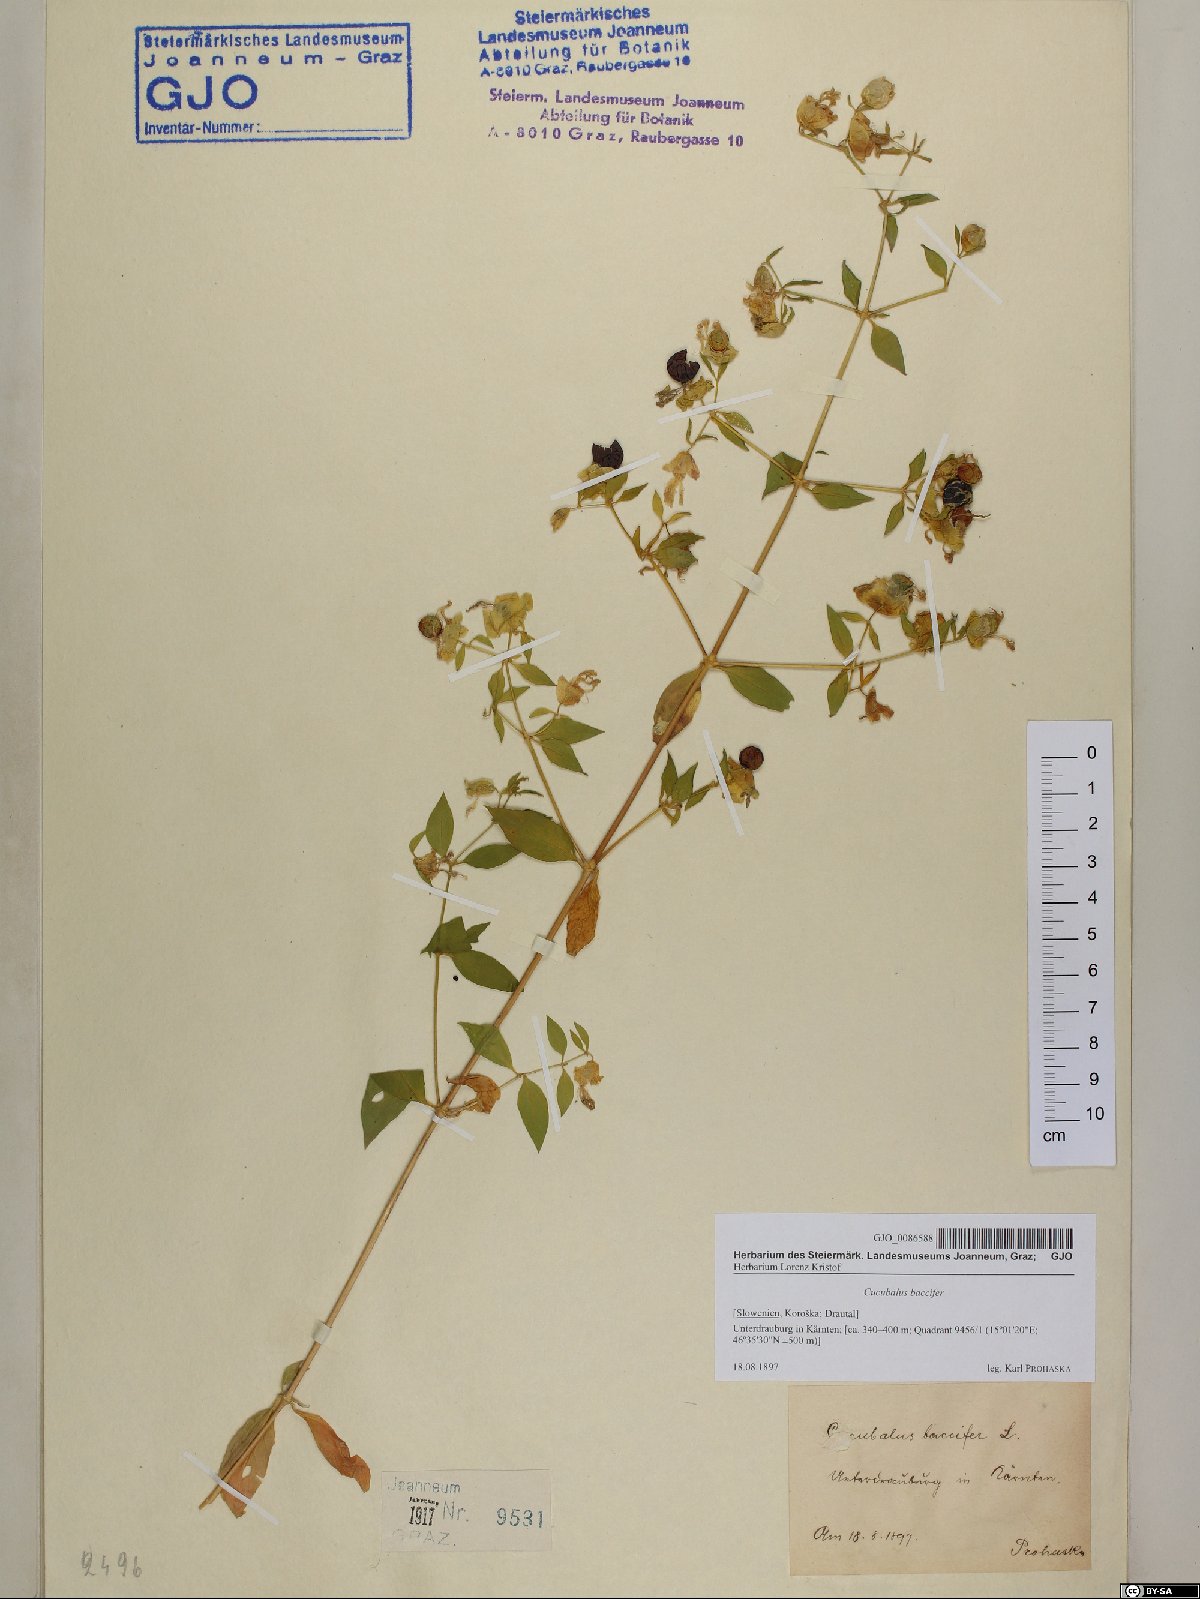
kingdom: Plantae
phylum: Tracheophyta
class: Magnoliopsida
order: Caryophyllales
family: Caryophyllaceae
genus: Silene
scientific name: Silene baccifera
